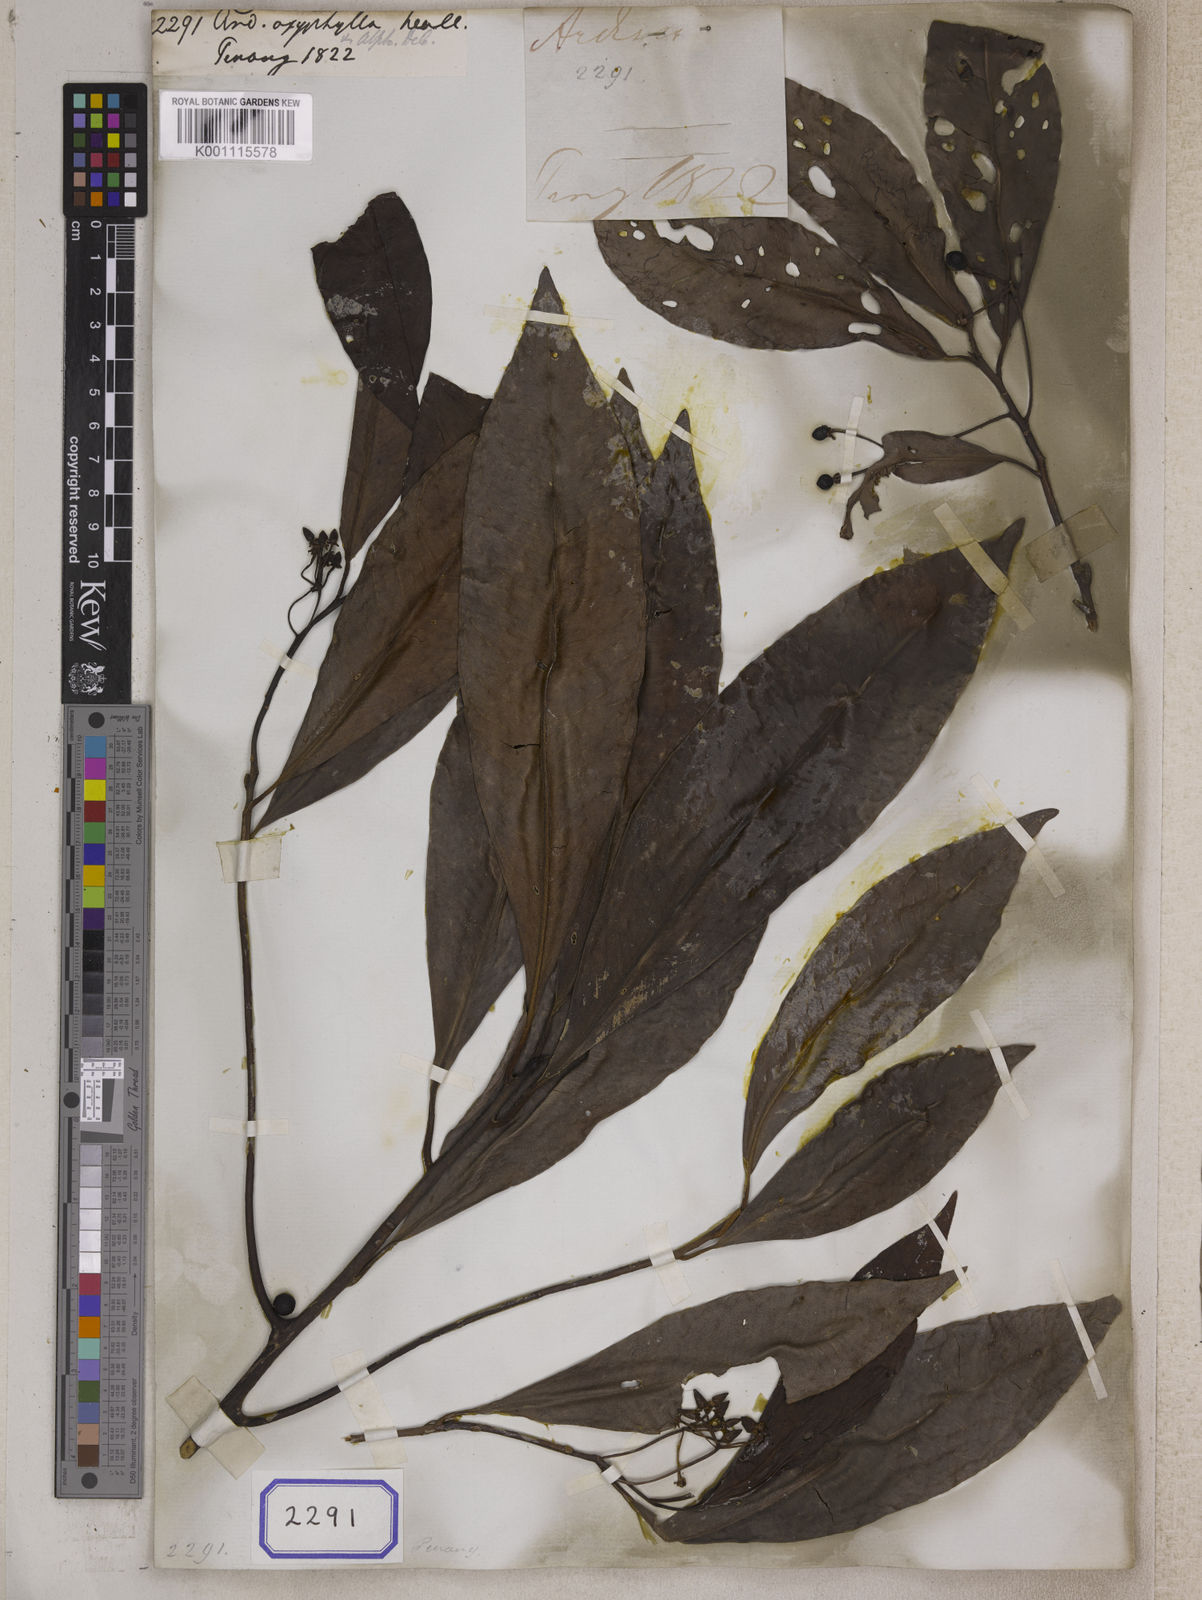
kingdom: Plantae
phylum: Tracheophyta
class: Magnoliopsida
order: Ericales
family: Primulaceae
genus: Ardisia
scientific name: Ardisia
